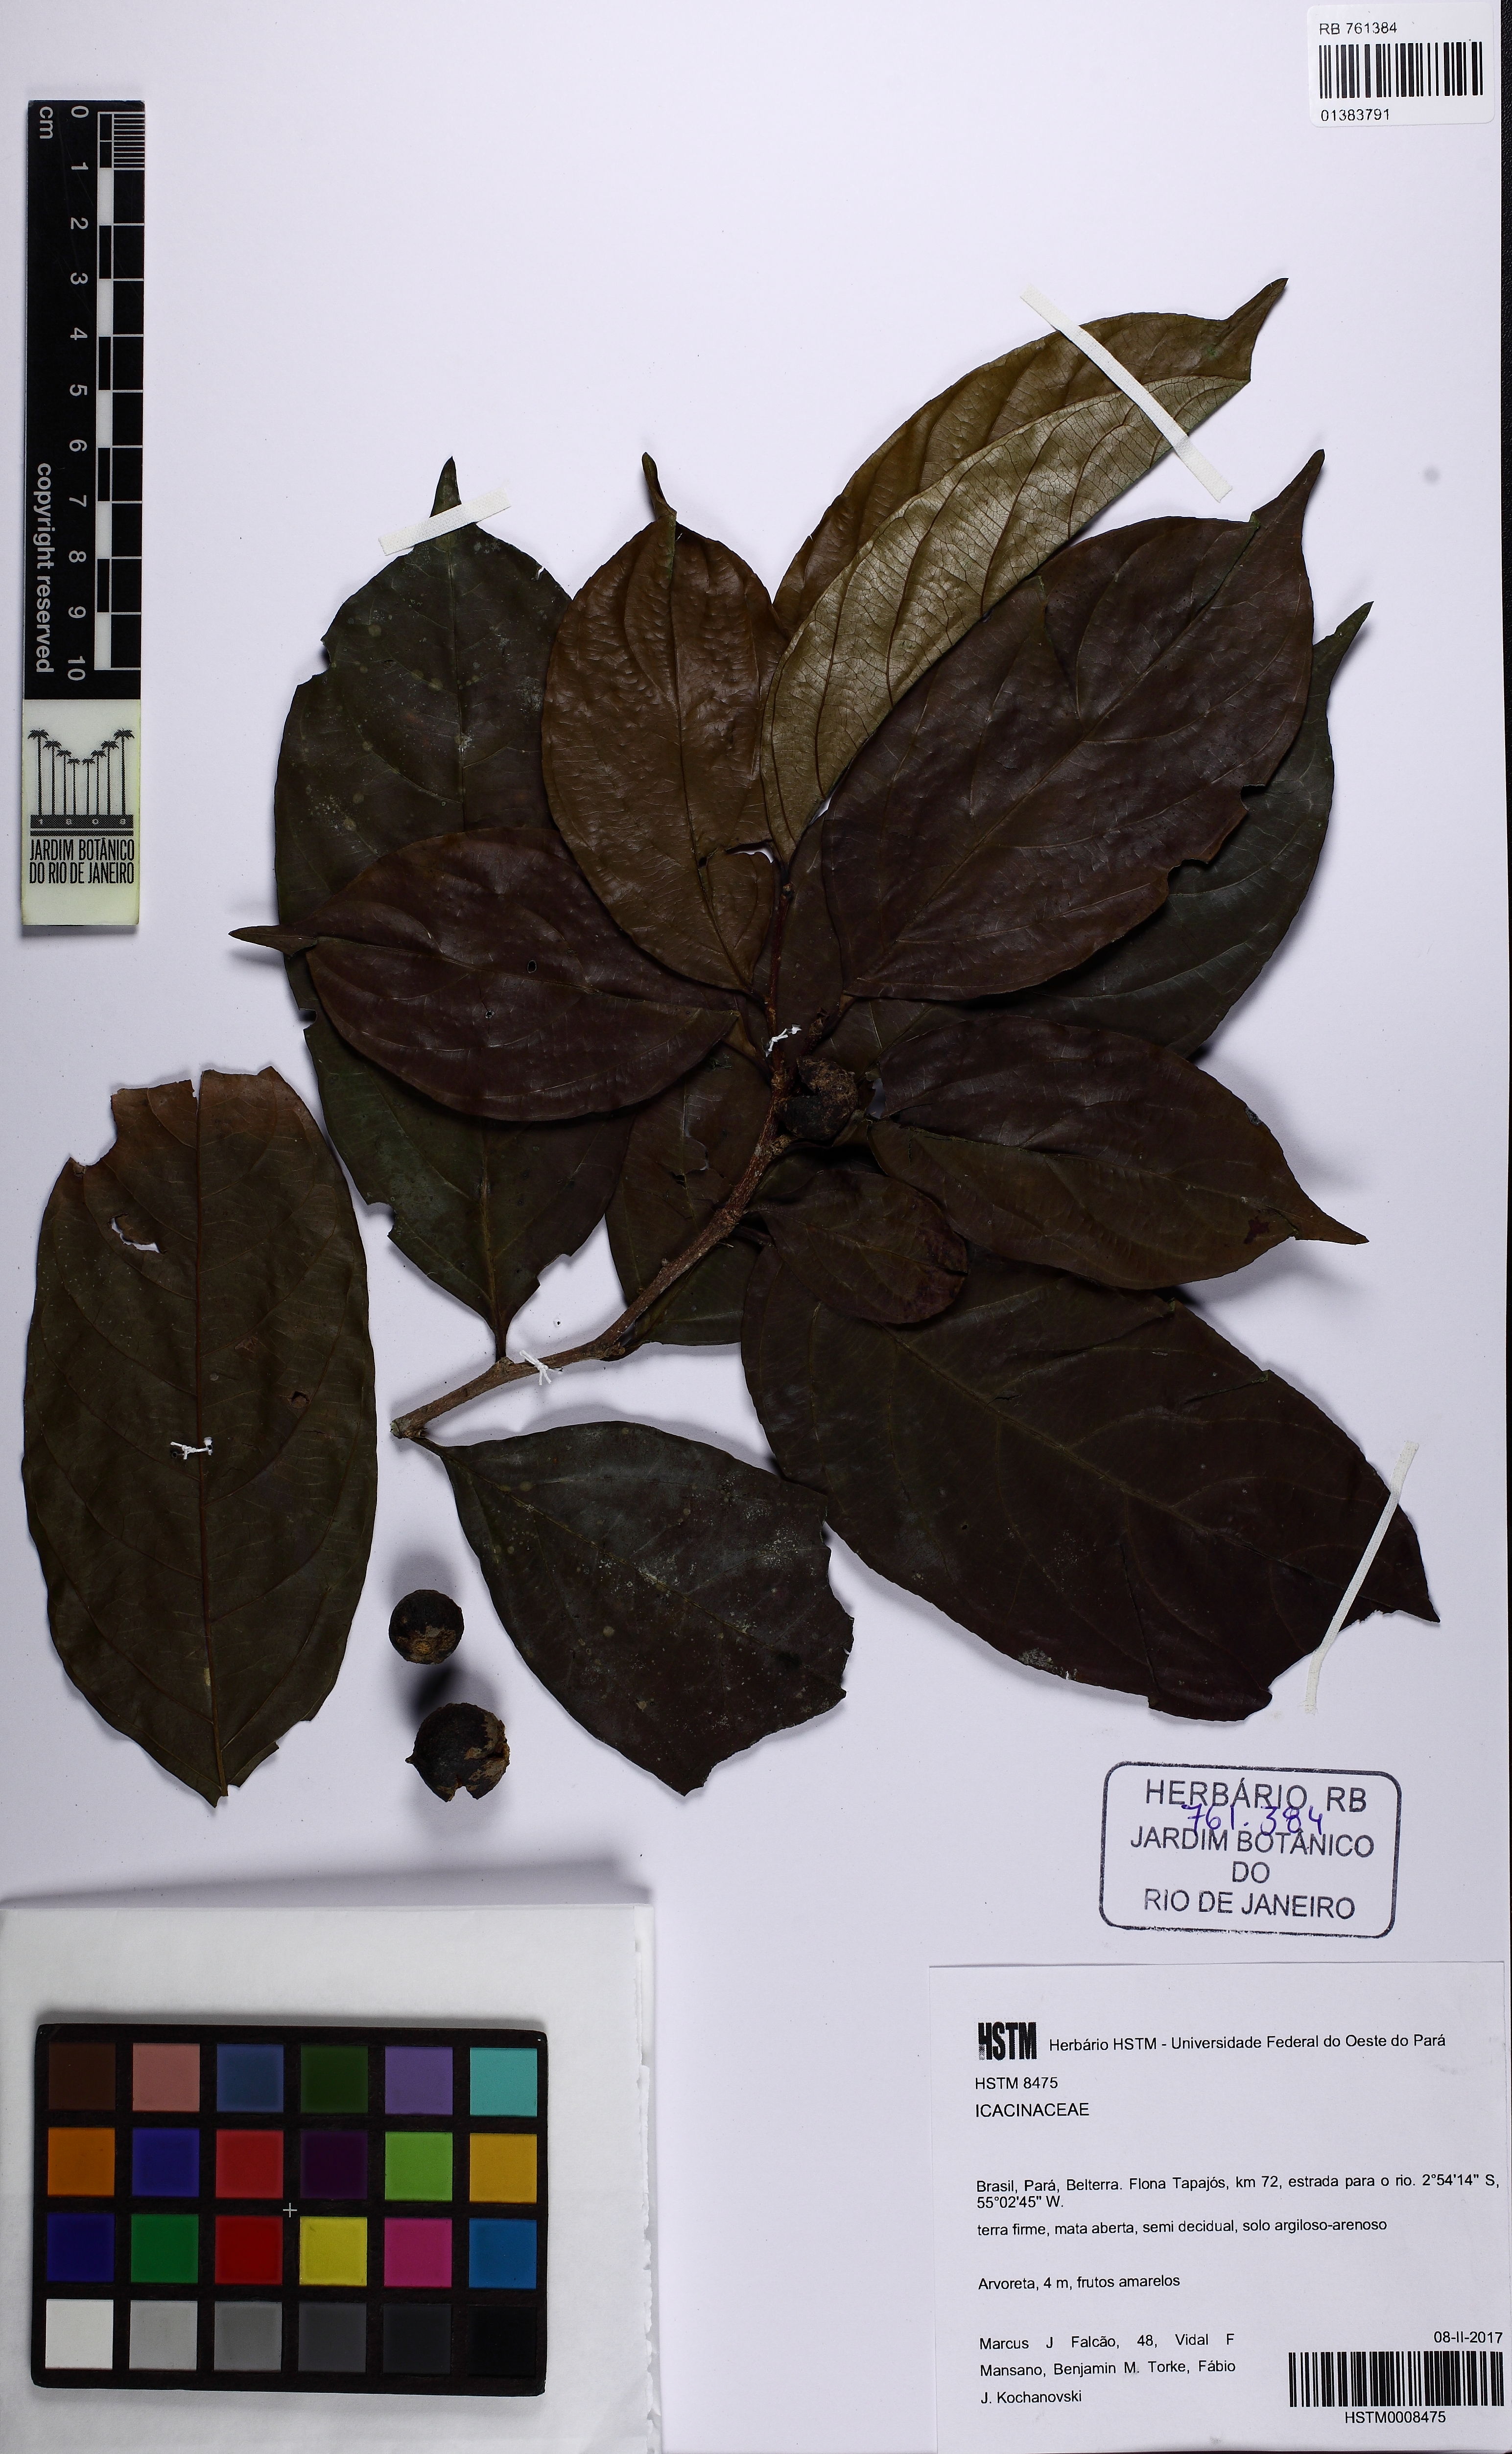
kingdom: Plantae
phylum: Tracheophyta
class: Magnoliopsida
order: Icacinales
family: Icacinaceae
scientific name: Icacinaceae
